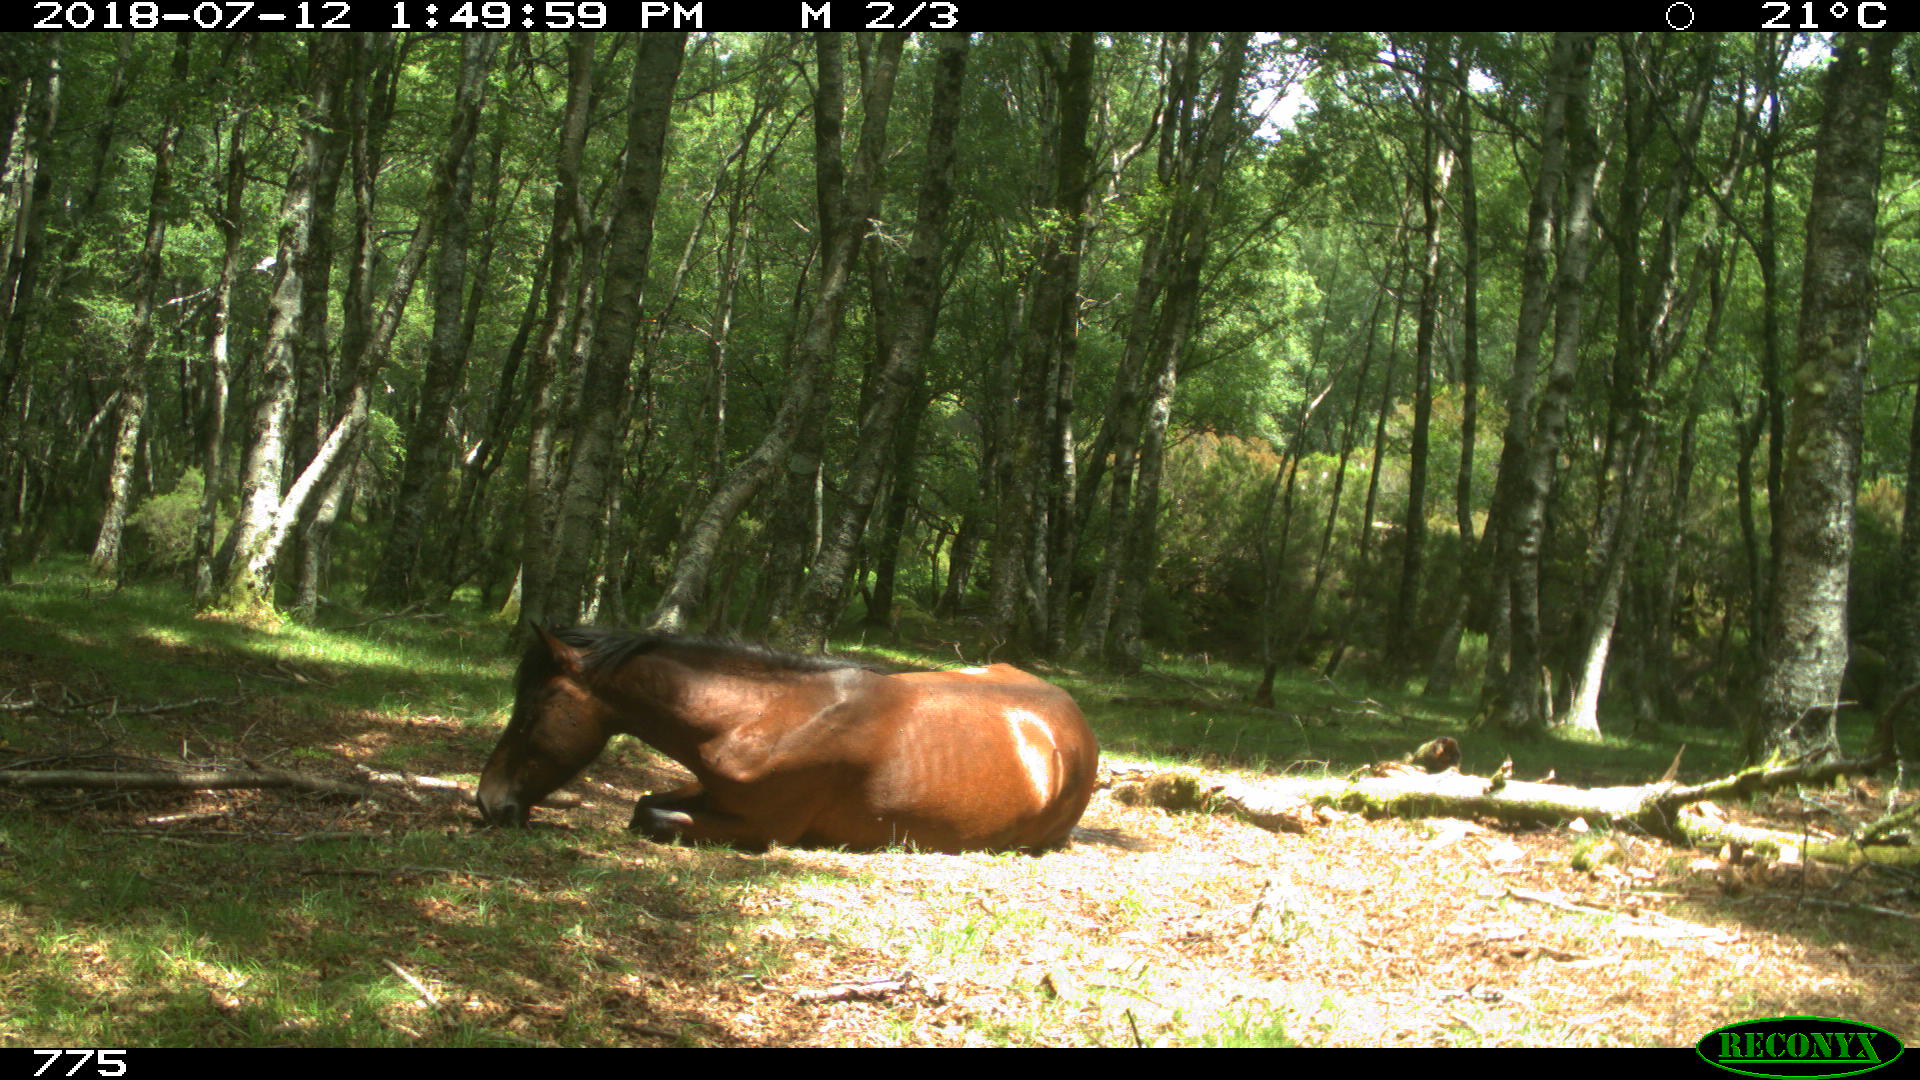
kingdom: Animalia
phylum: Chordata
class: Mammalia
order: Perissodactyla
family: Equidae
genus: Equus
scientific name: Equus caballus
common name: Horse
